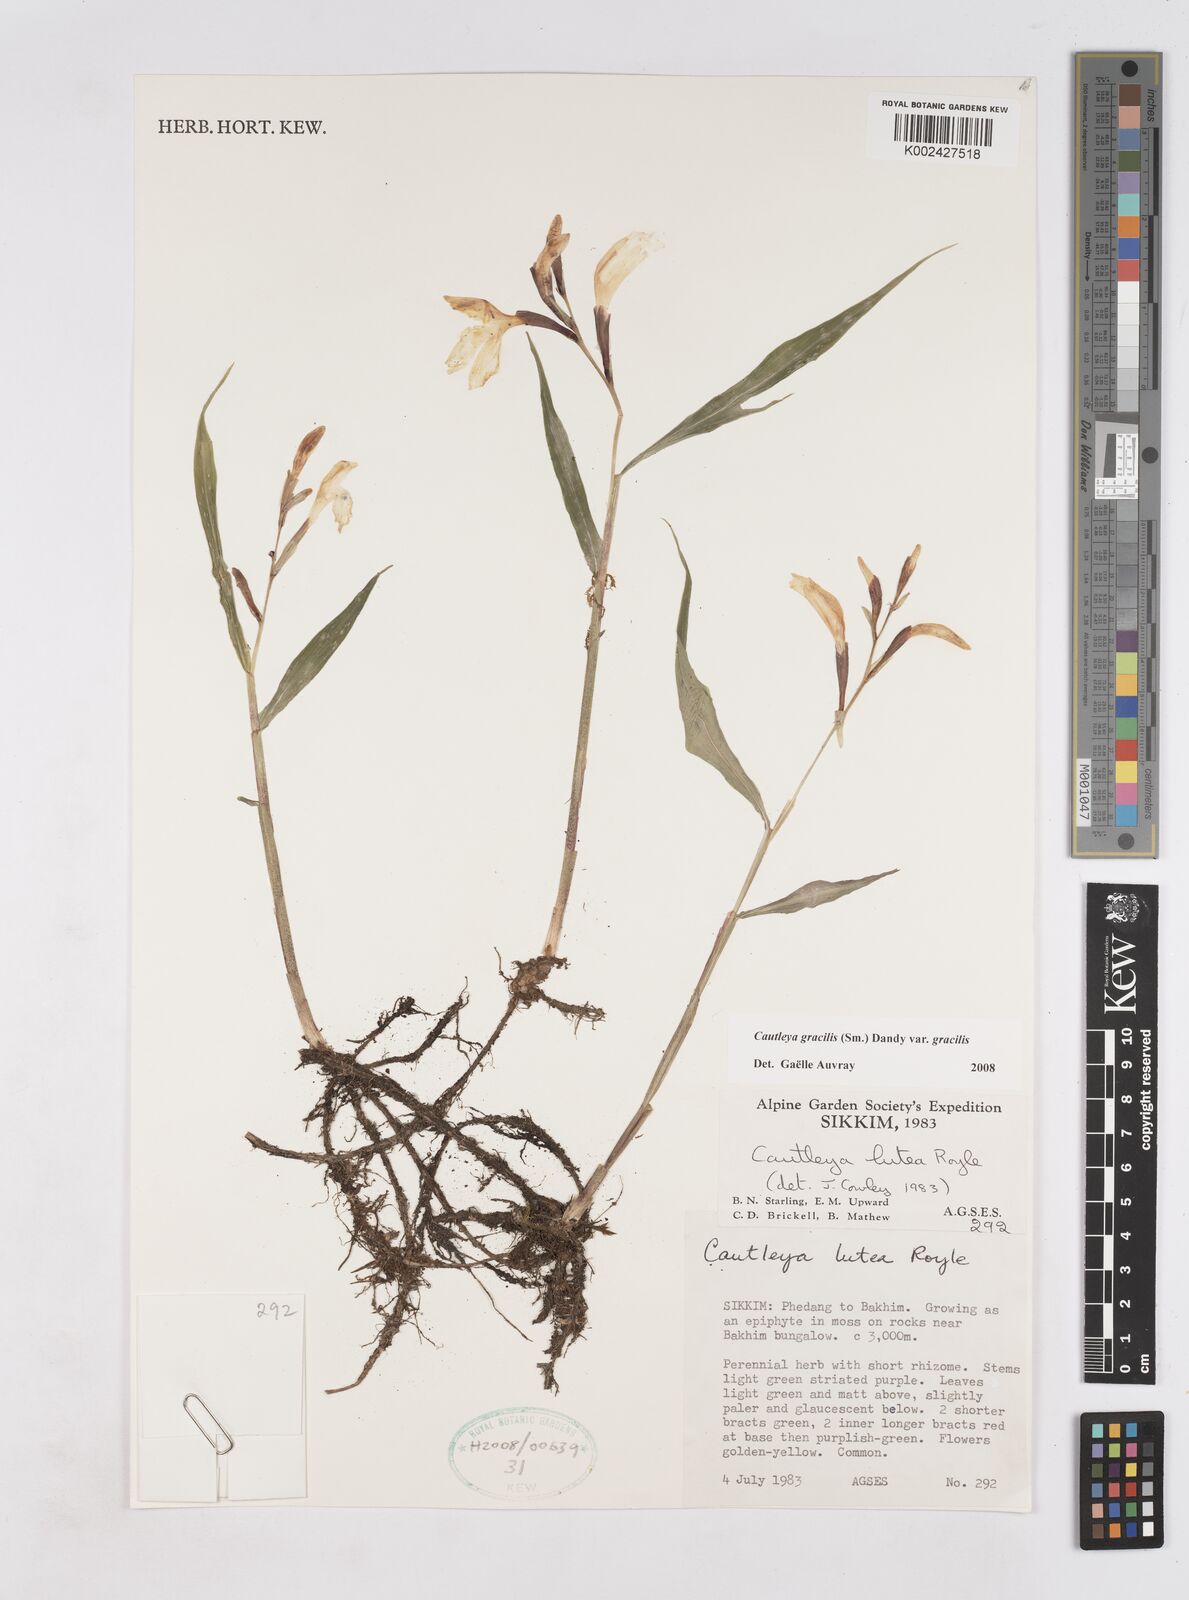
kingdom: Plantae
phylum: Tracheophyta
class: Liliopsida
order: Zingiberales
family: Zingiberaceae
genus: Cautleya
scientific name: Cautleya gracilis
